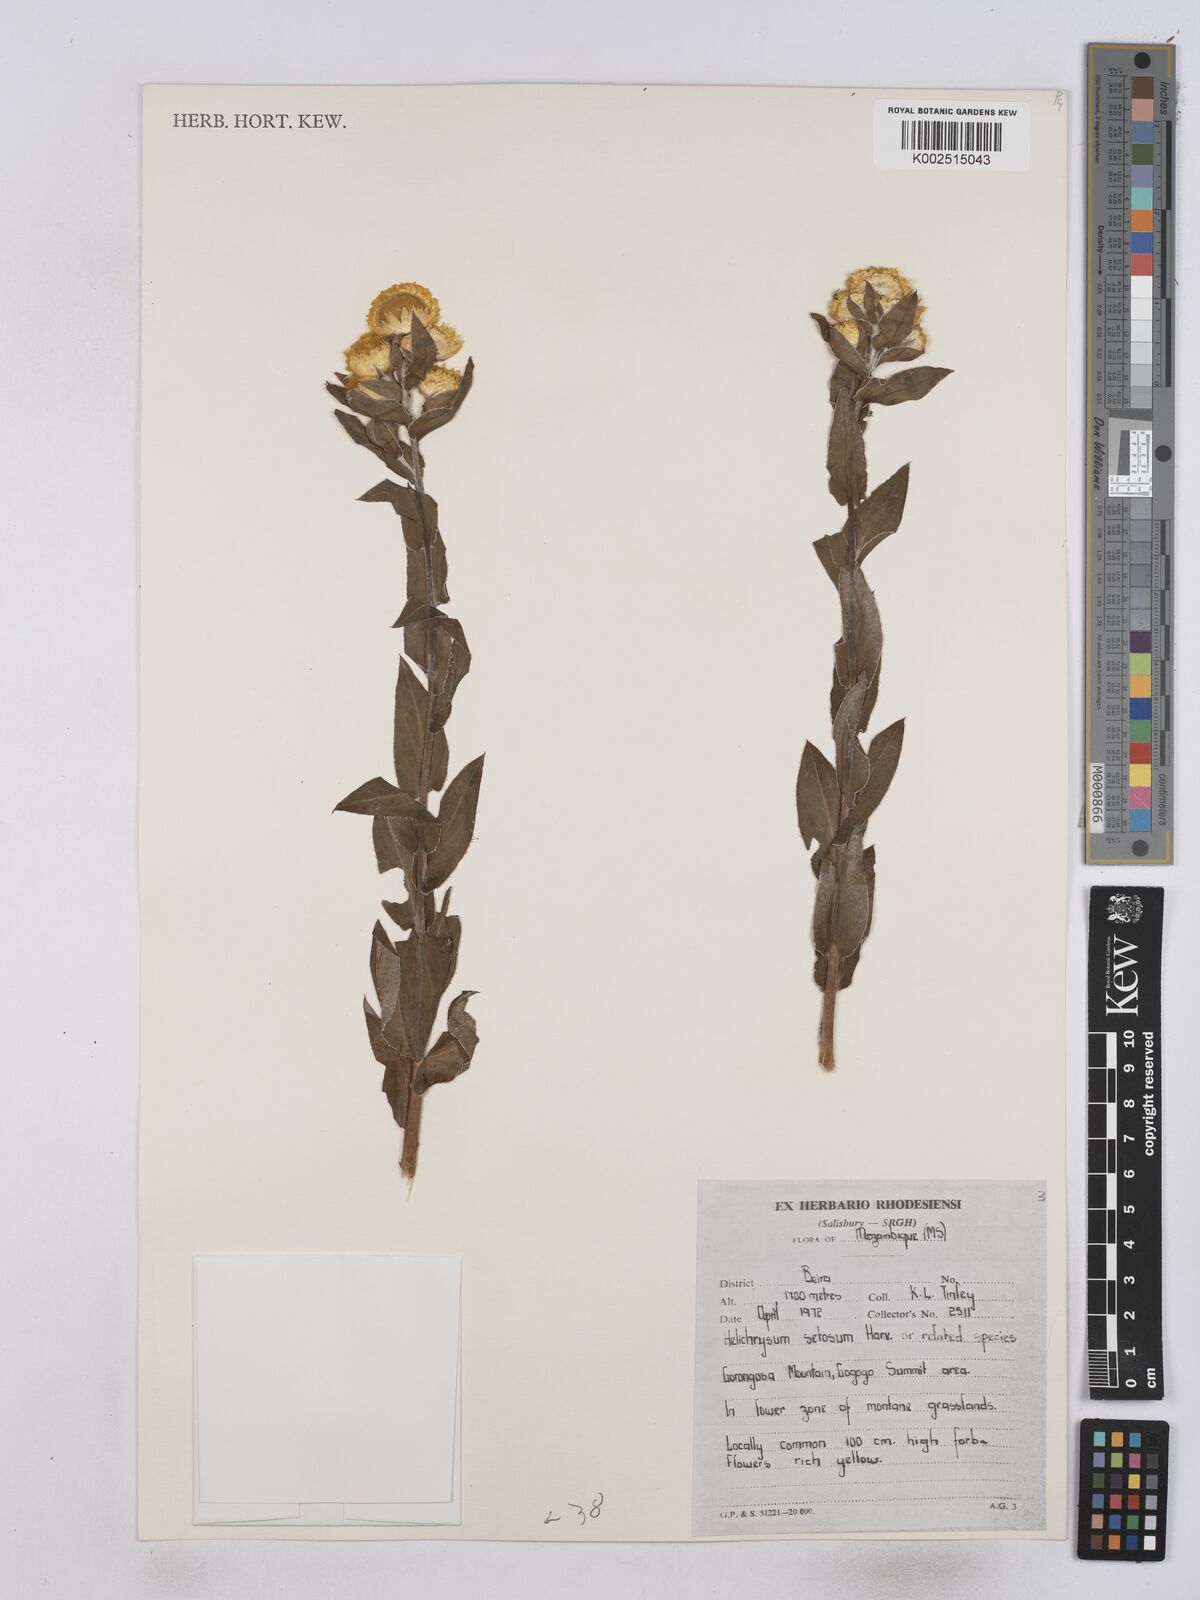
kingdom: Plantae
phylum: Tracheophyta
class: Magnoliopsida
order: Asterales
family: Asteraceae
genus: Helichrysum
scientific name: Helichrysum setosum
